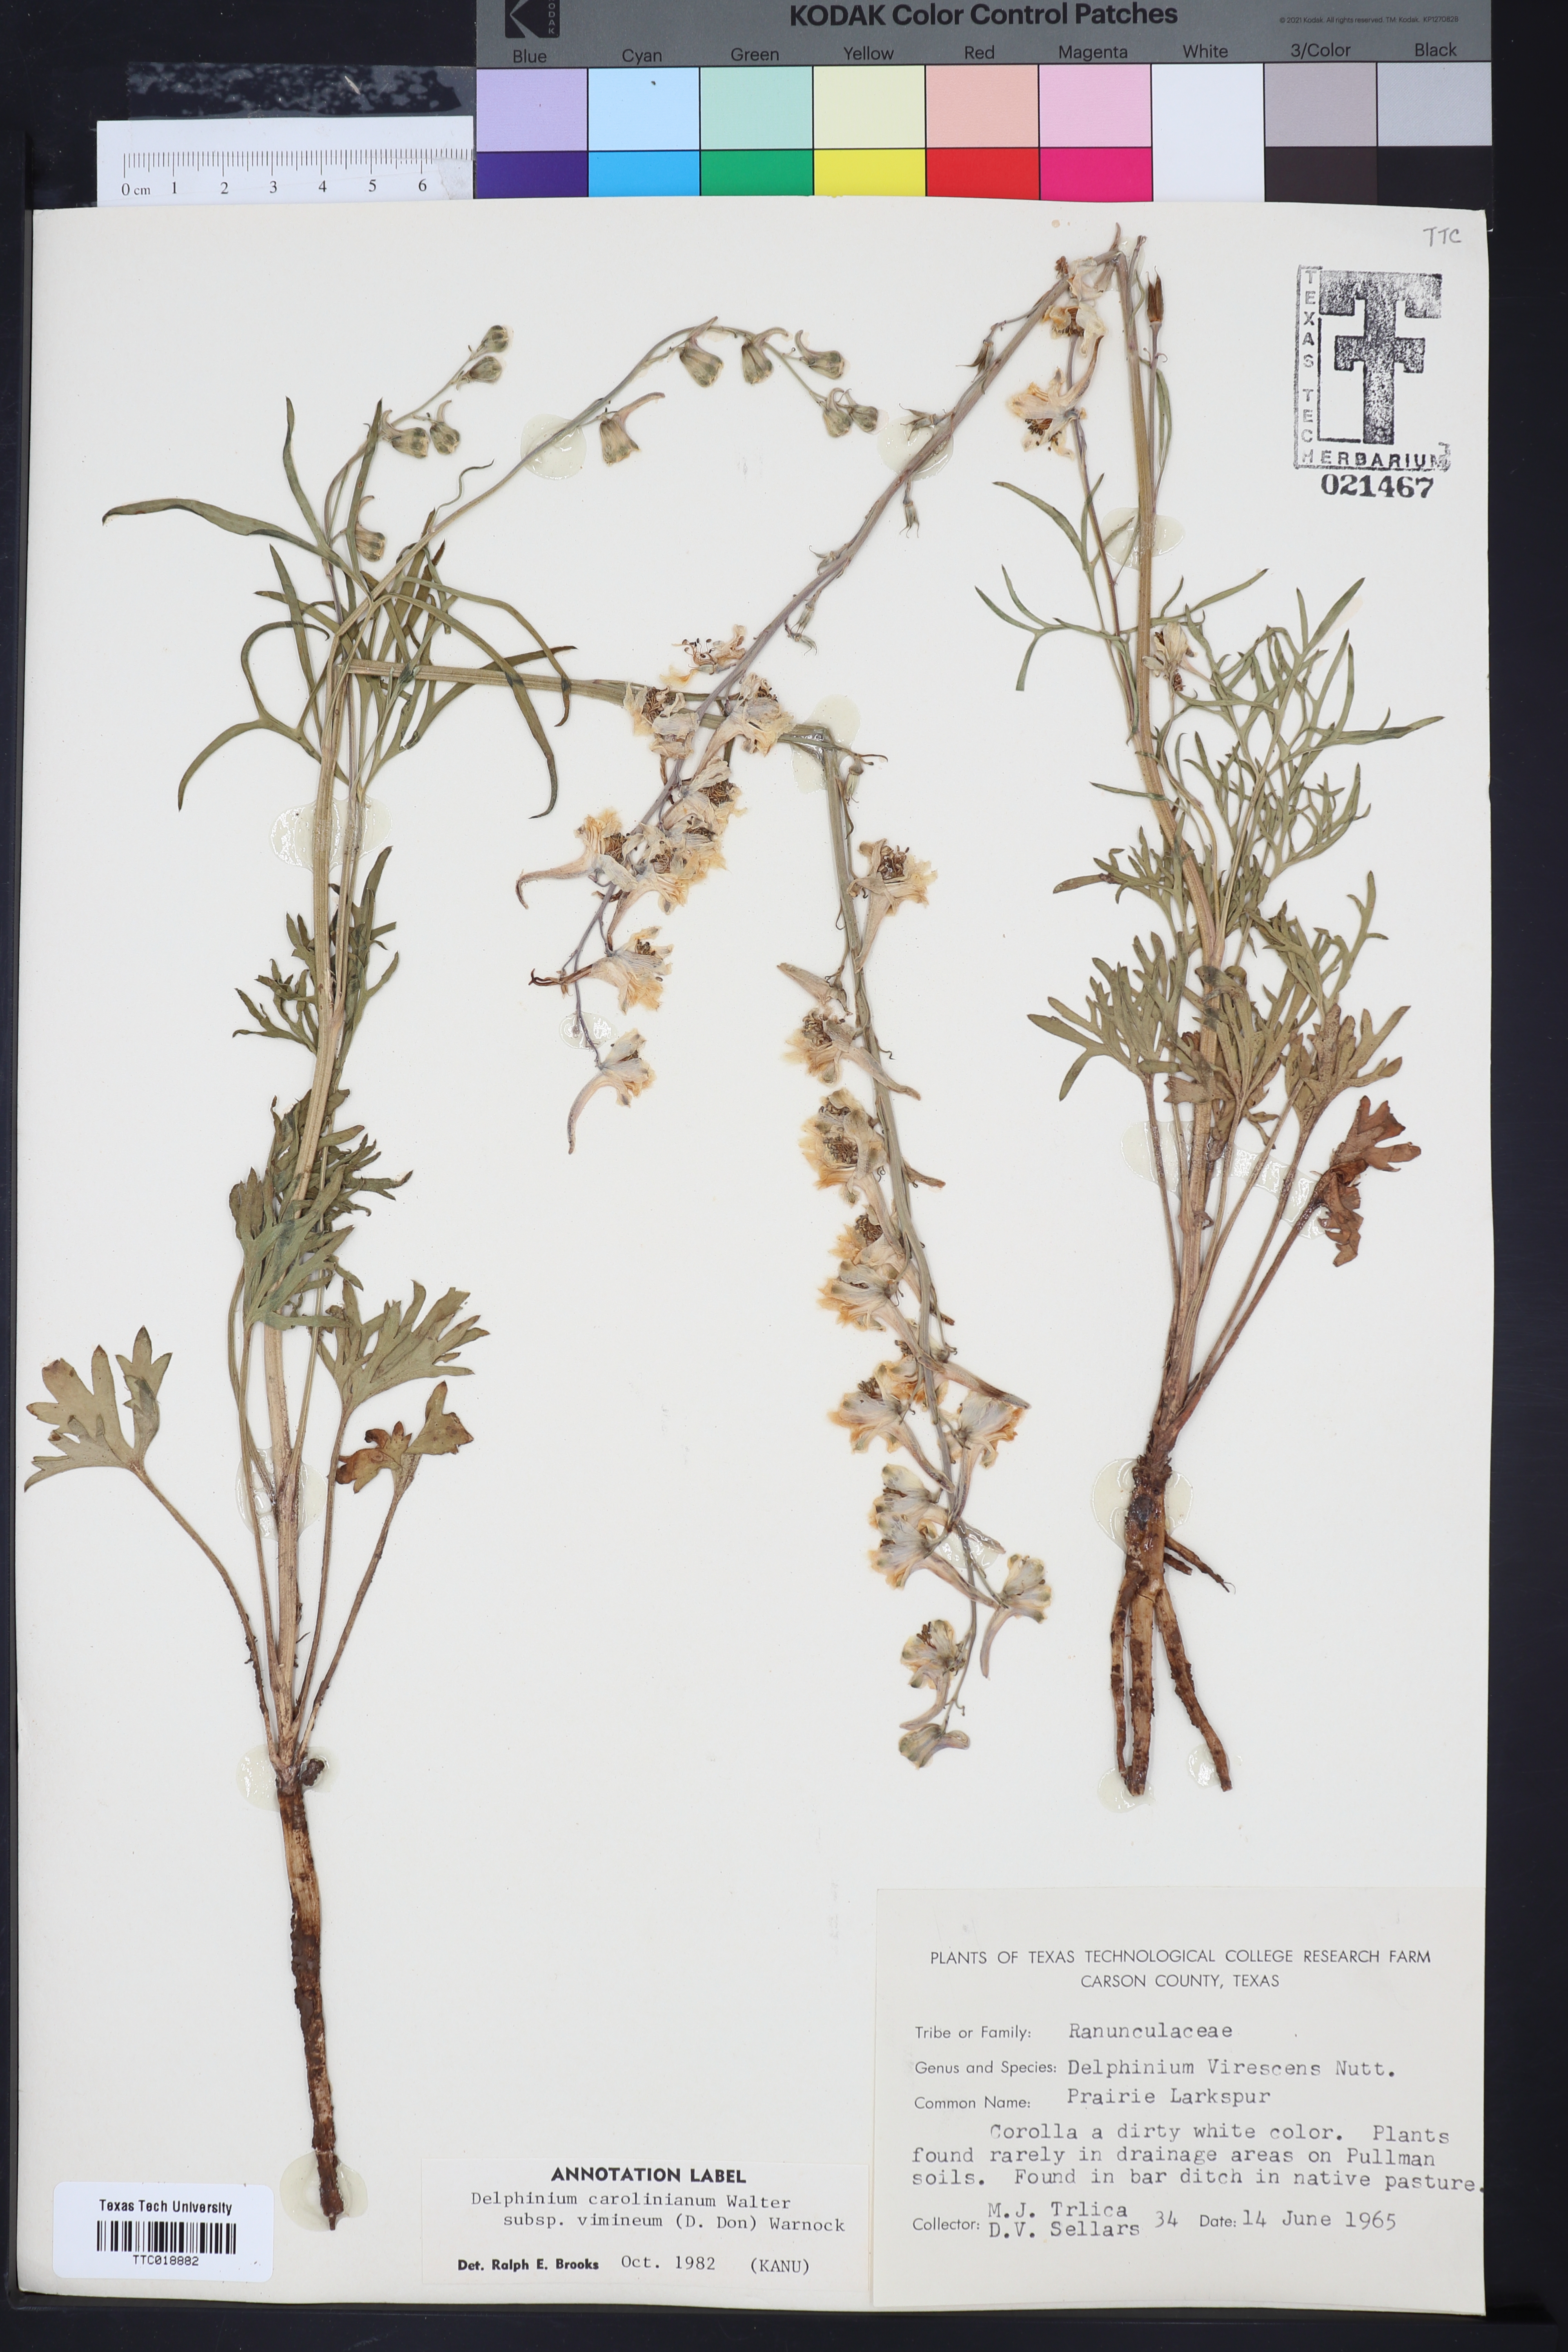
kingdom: Plantae
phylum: Tracheophyta
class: Magnoliopsida
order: Ranunculales
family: Ranunculaceae
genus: Delphinium
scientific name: Delphinium carolinianum
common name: Carolina larkspur
